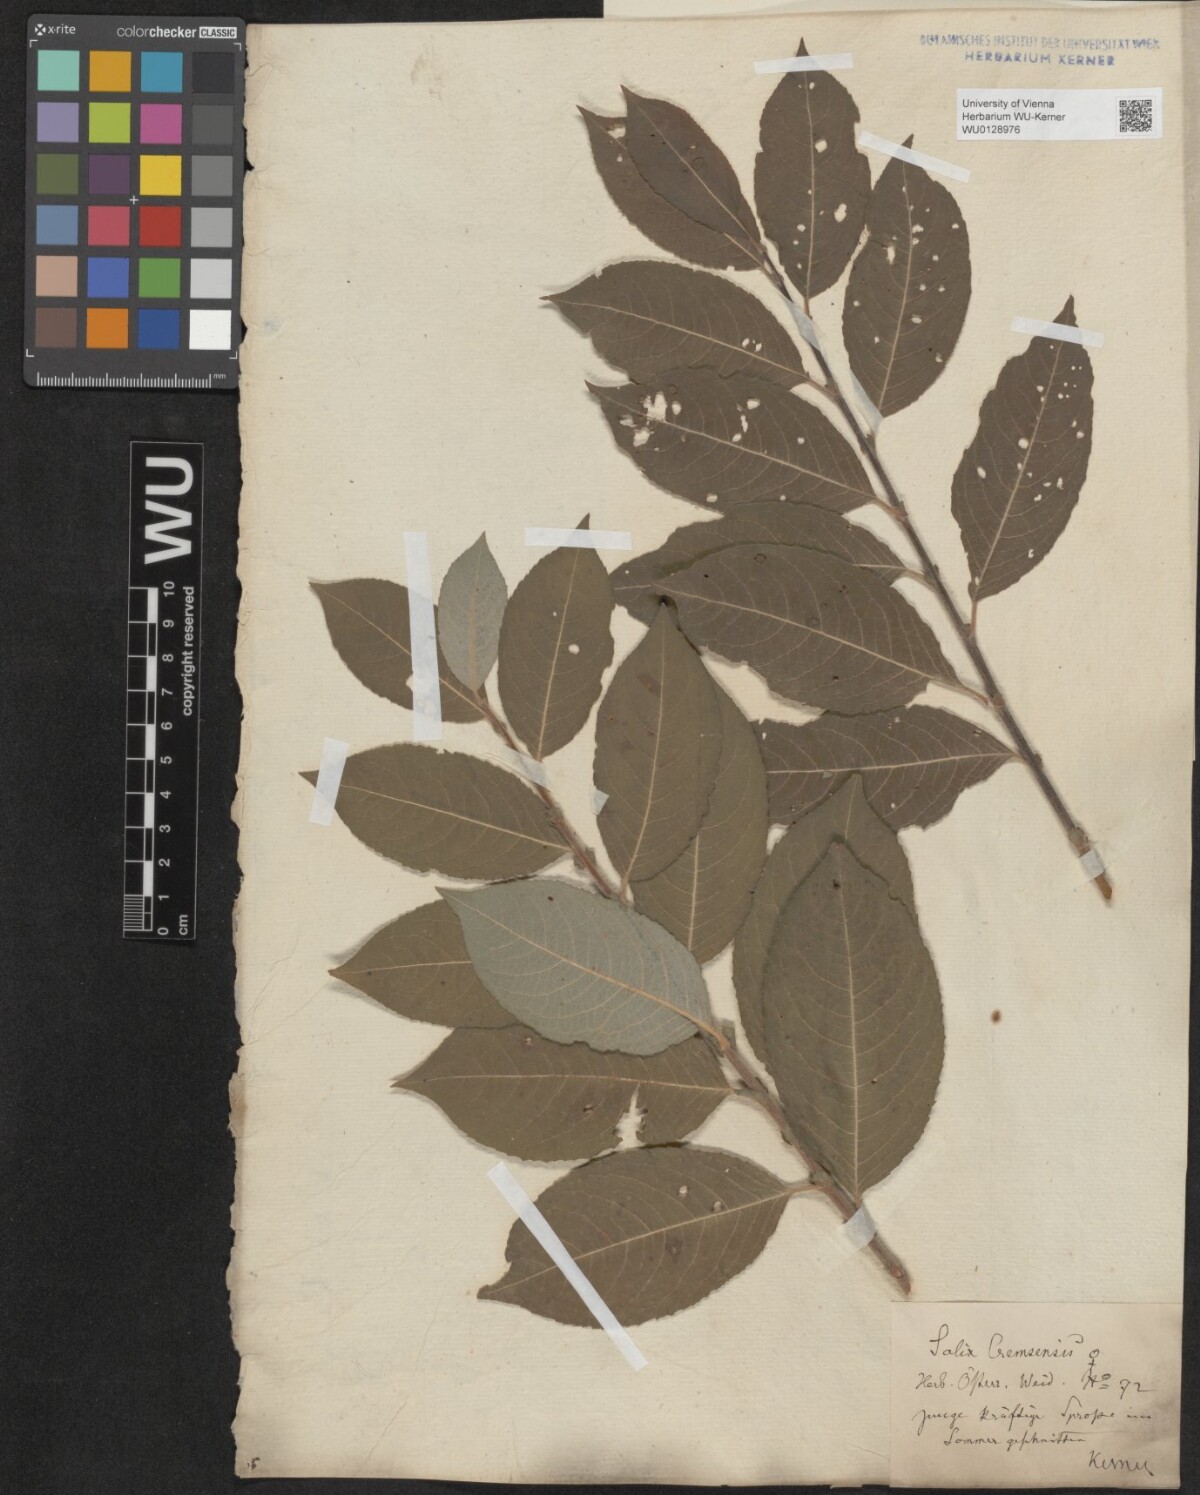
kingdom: Plantae
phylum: Tracheophyta
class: Magnoliopsida
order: Malpighiales
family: Salicaceae
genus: Salix
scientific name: Salix erdingeri
